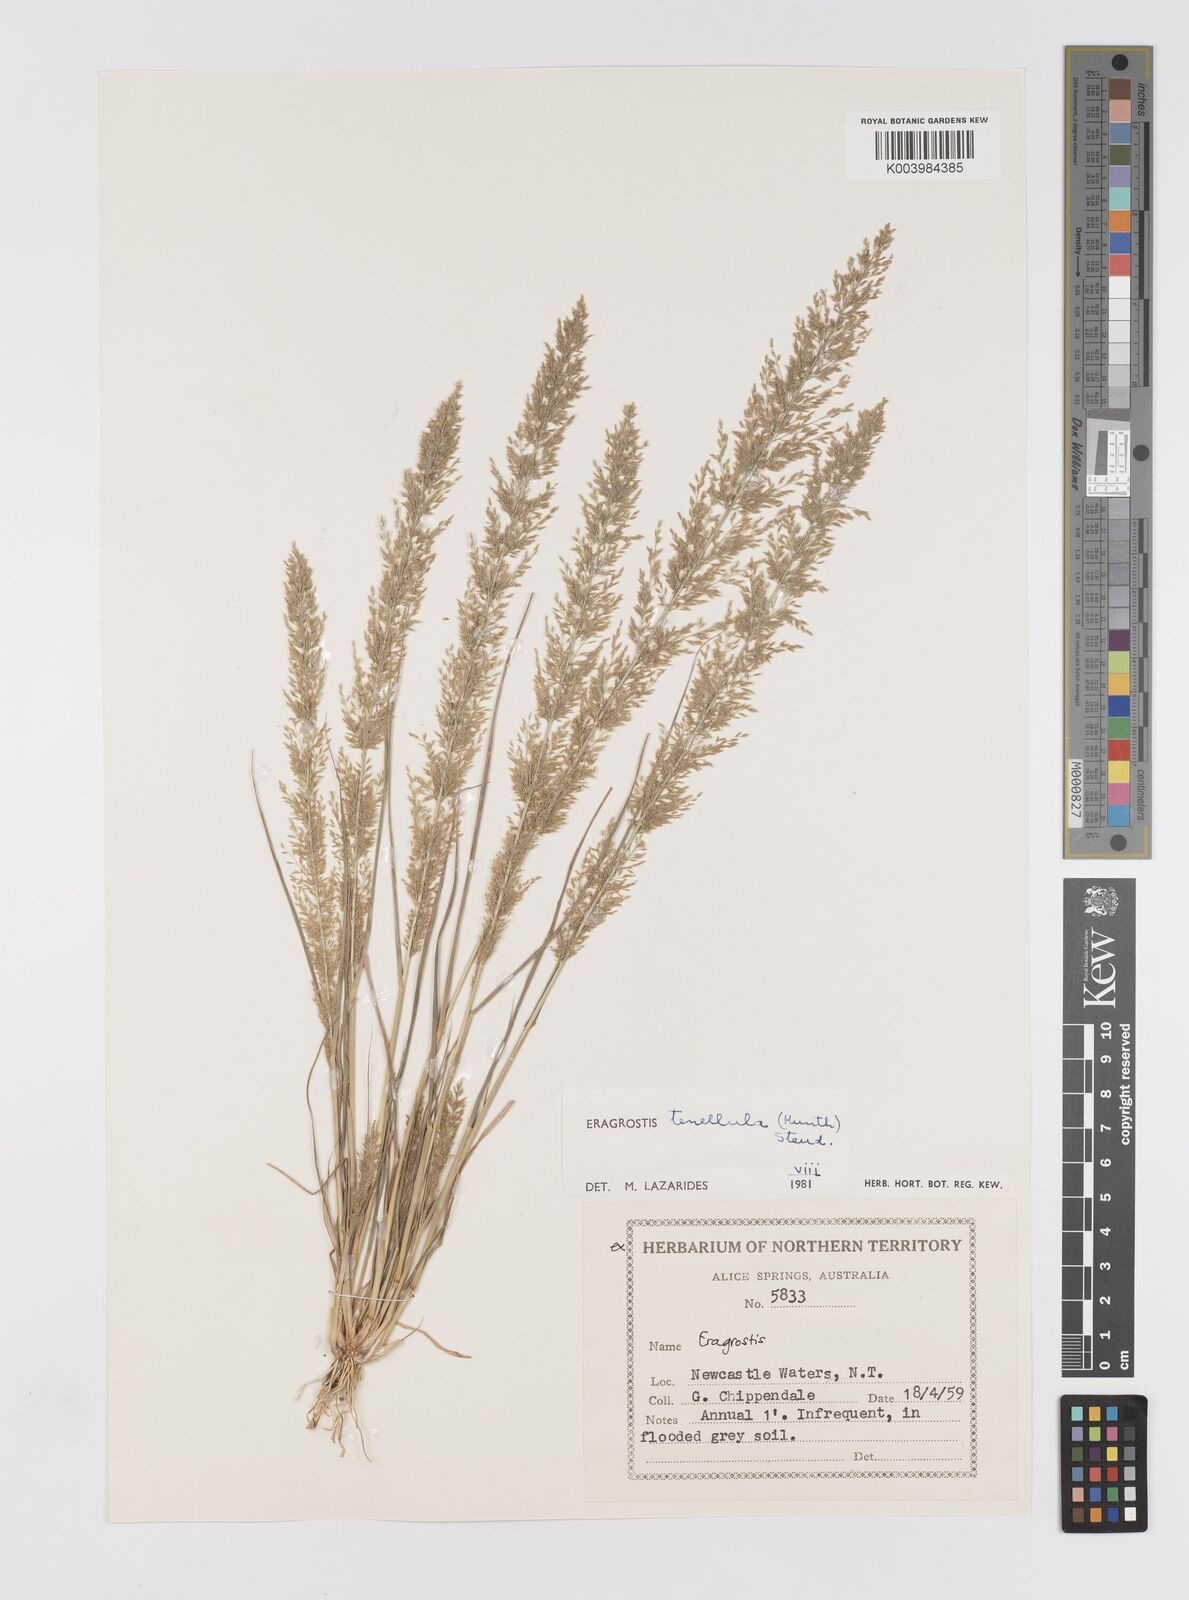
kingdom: Plantae
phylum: Tracheophyta
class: Liliopsida
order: Poales
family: Poaceae
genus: Eragrostis
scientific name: Eragrostis tenellula
